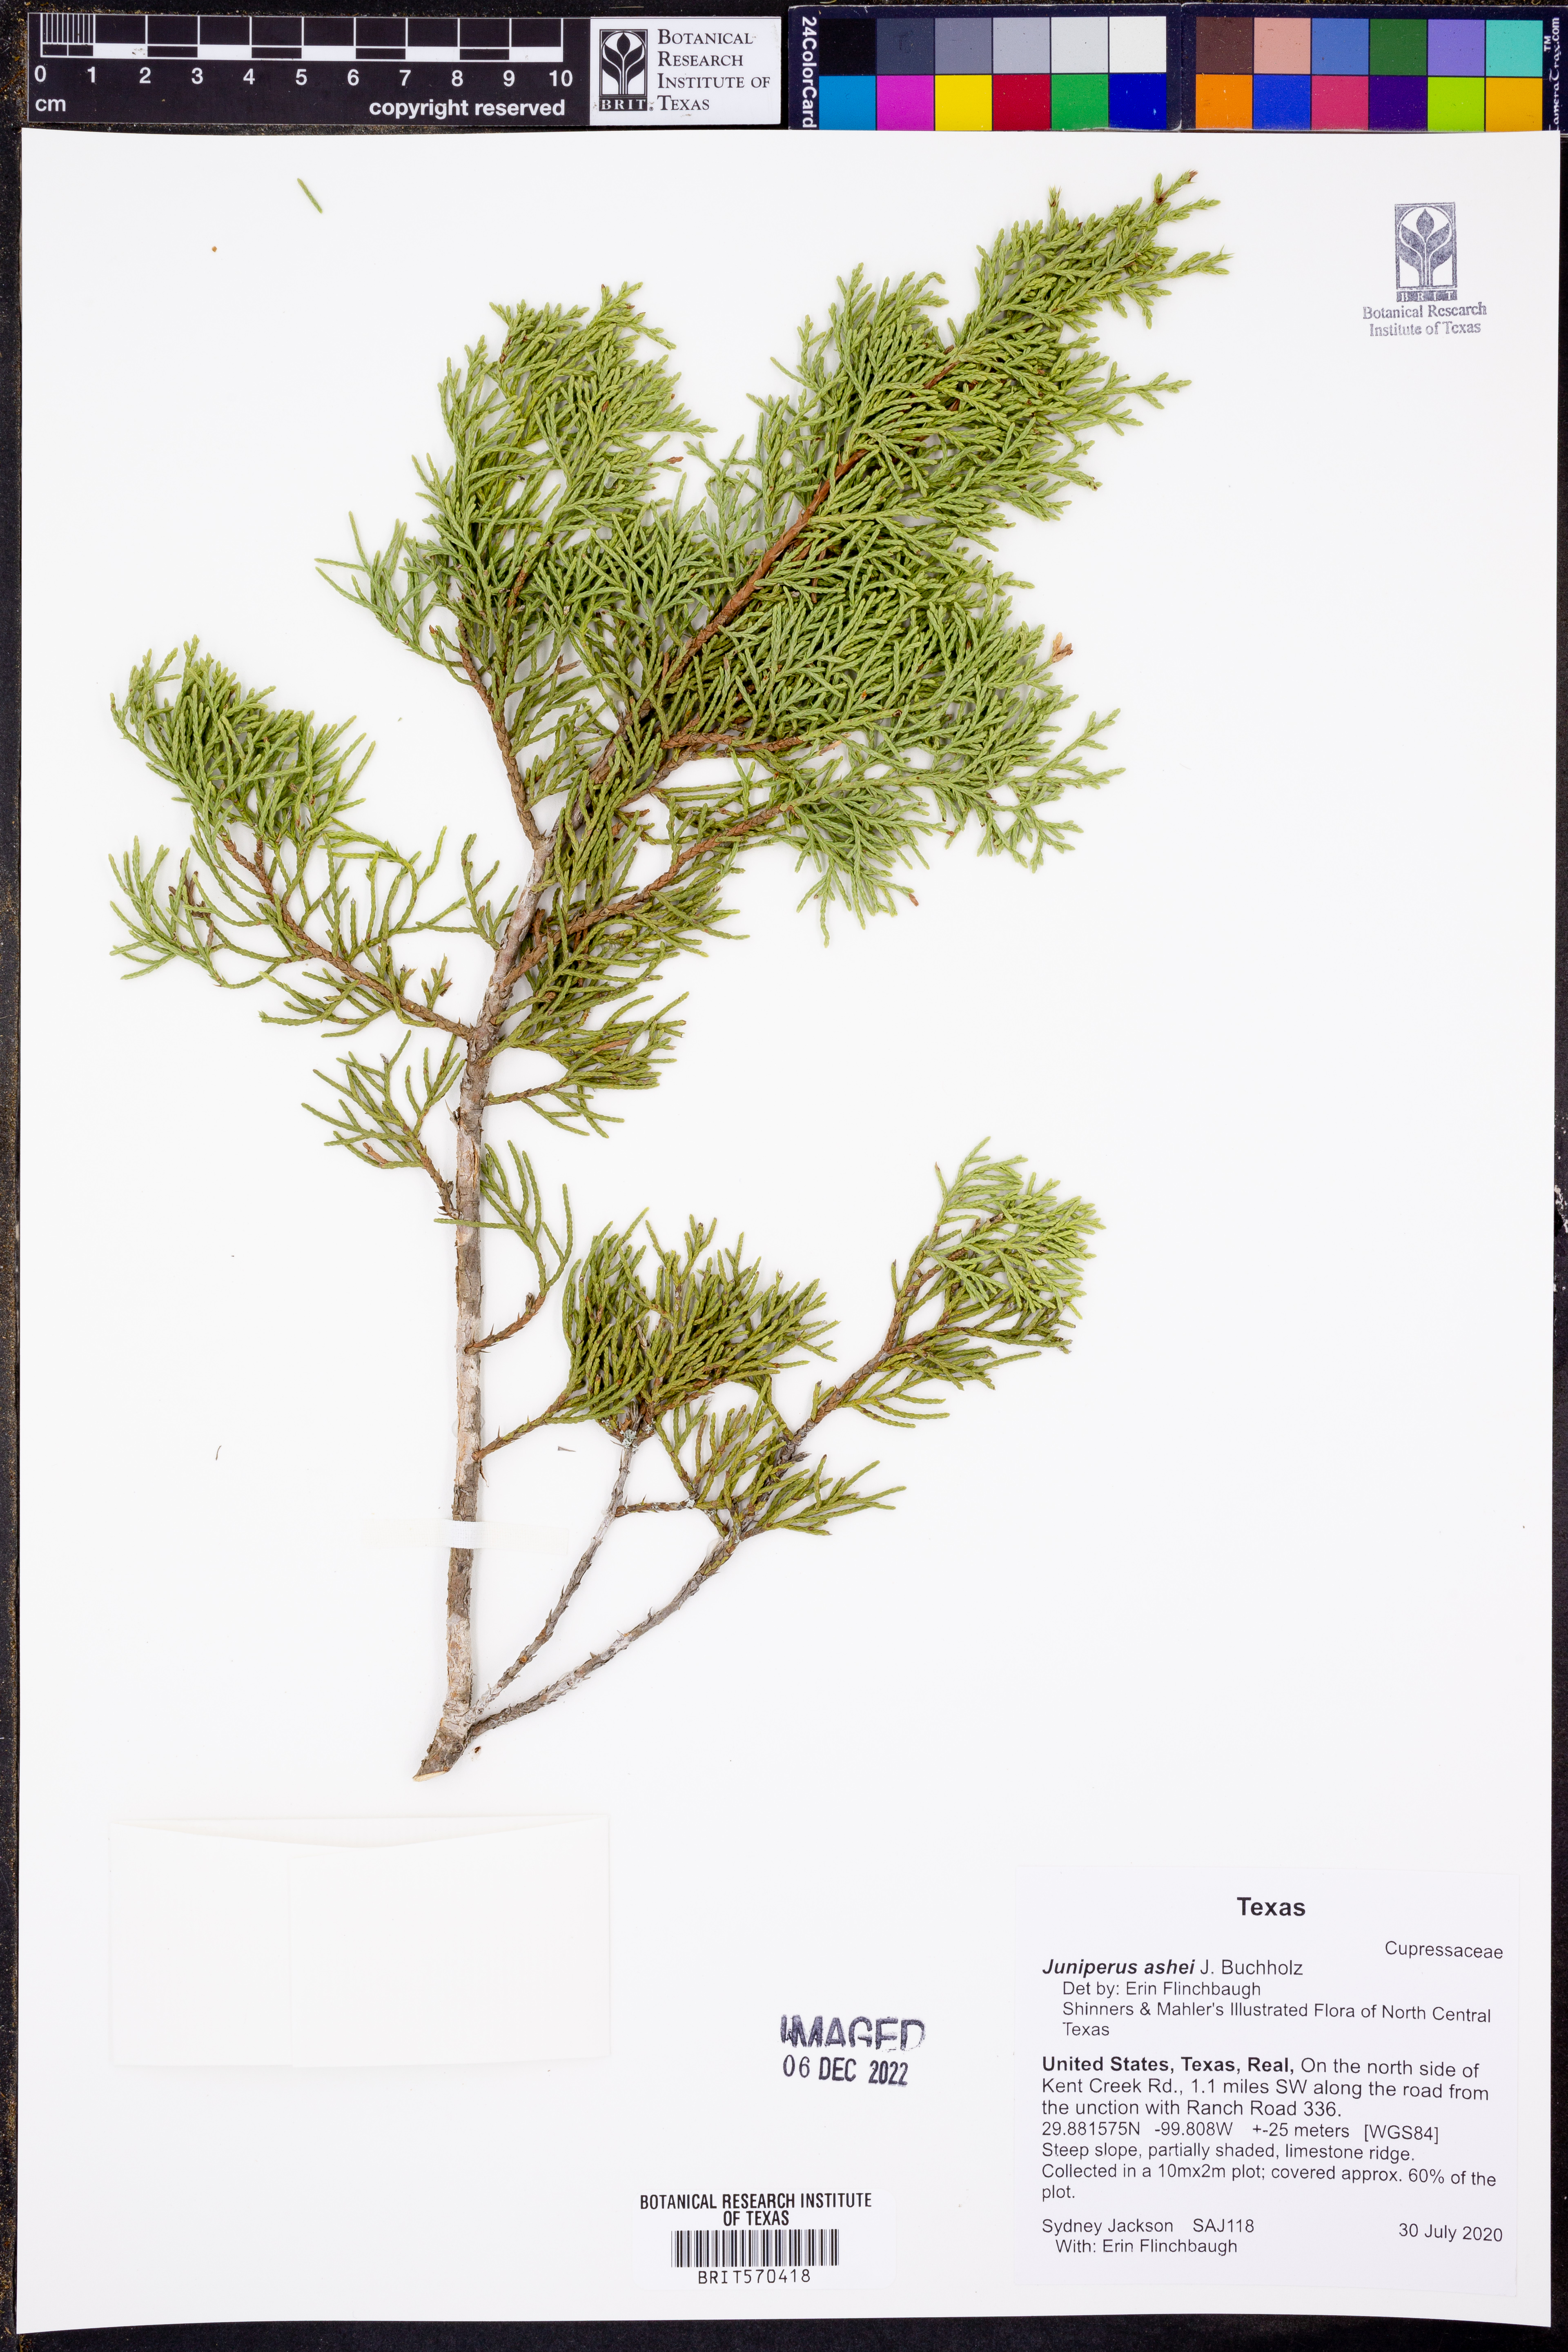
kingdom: Plantae
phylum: Tracheophyta
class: Pinopsida
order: Pinales
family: Cupressaceae
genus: Juniperus
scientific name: Juniperus ashei
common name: Mexican juniper
